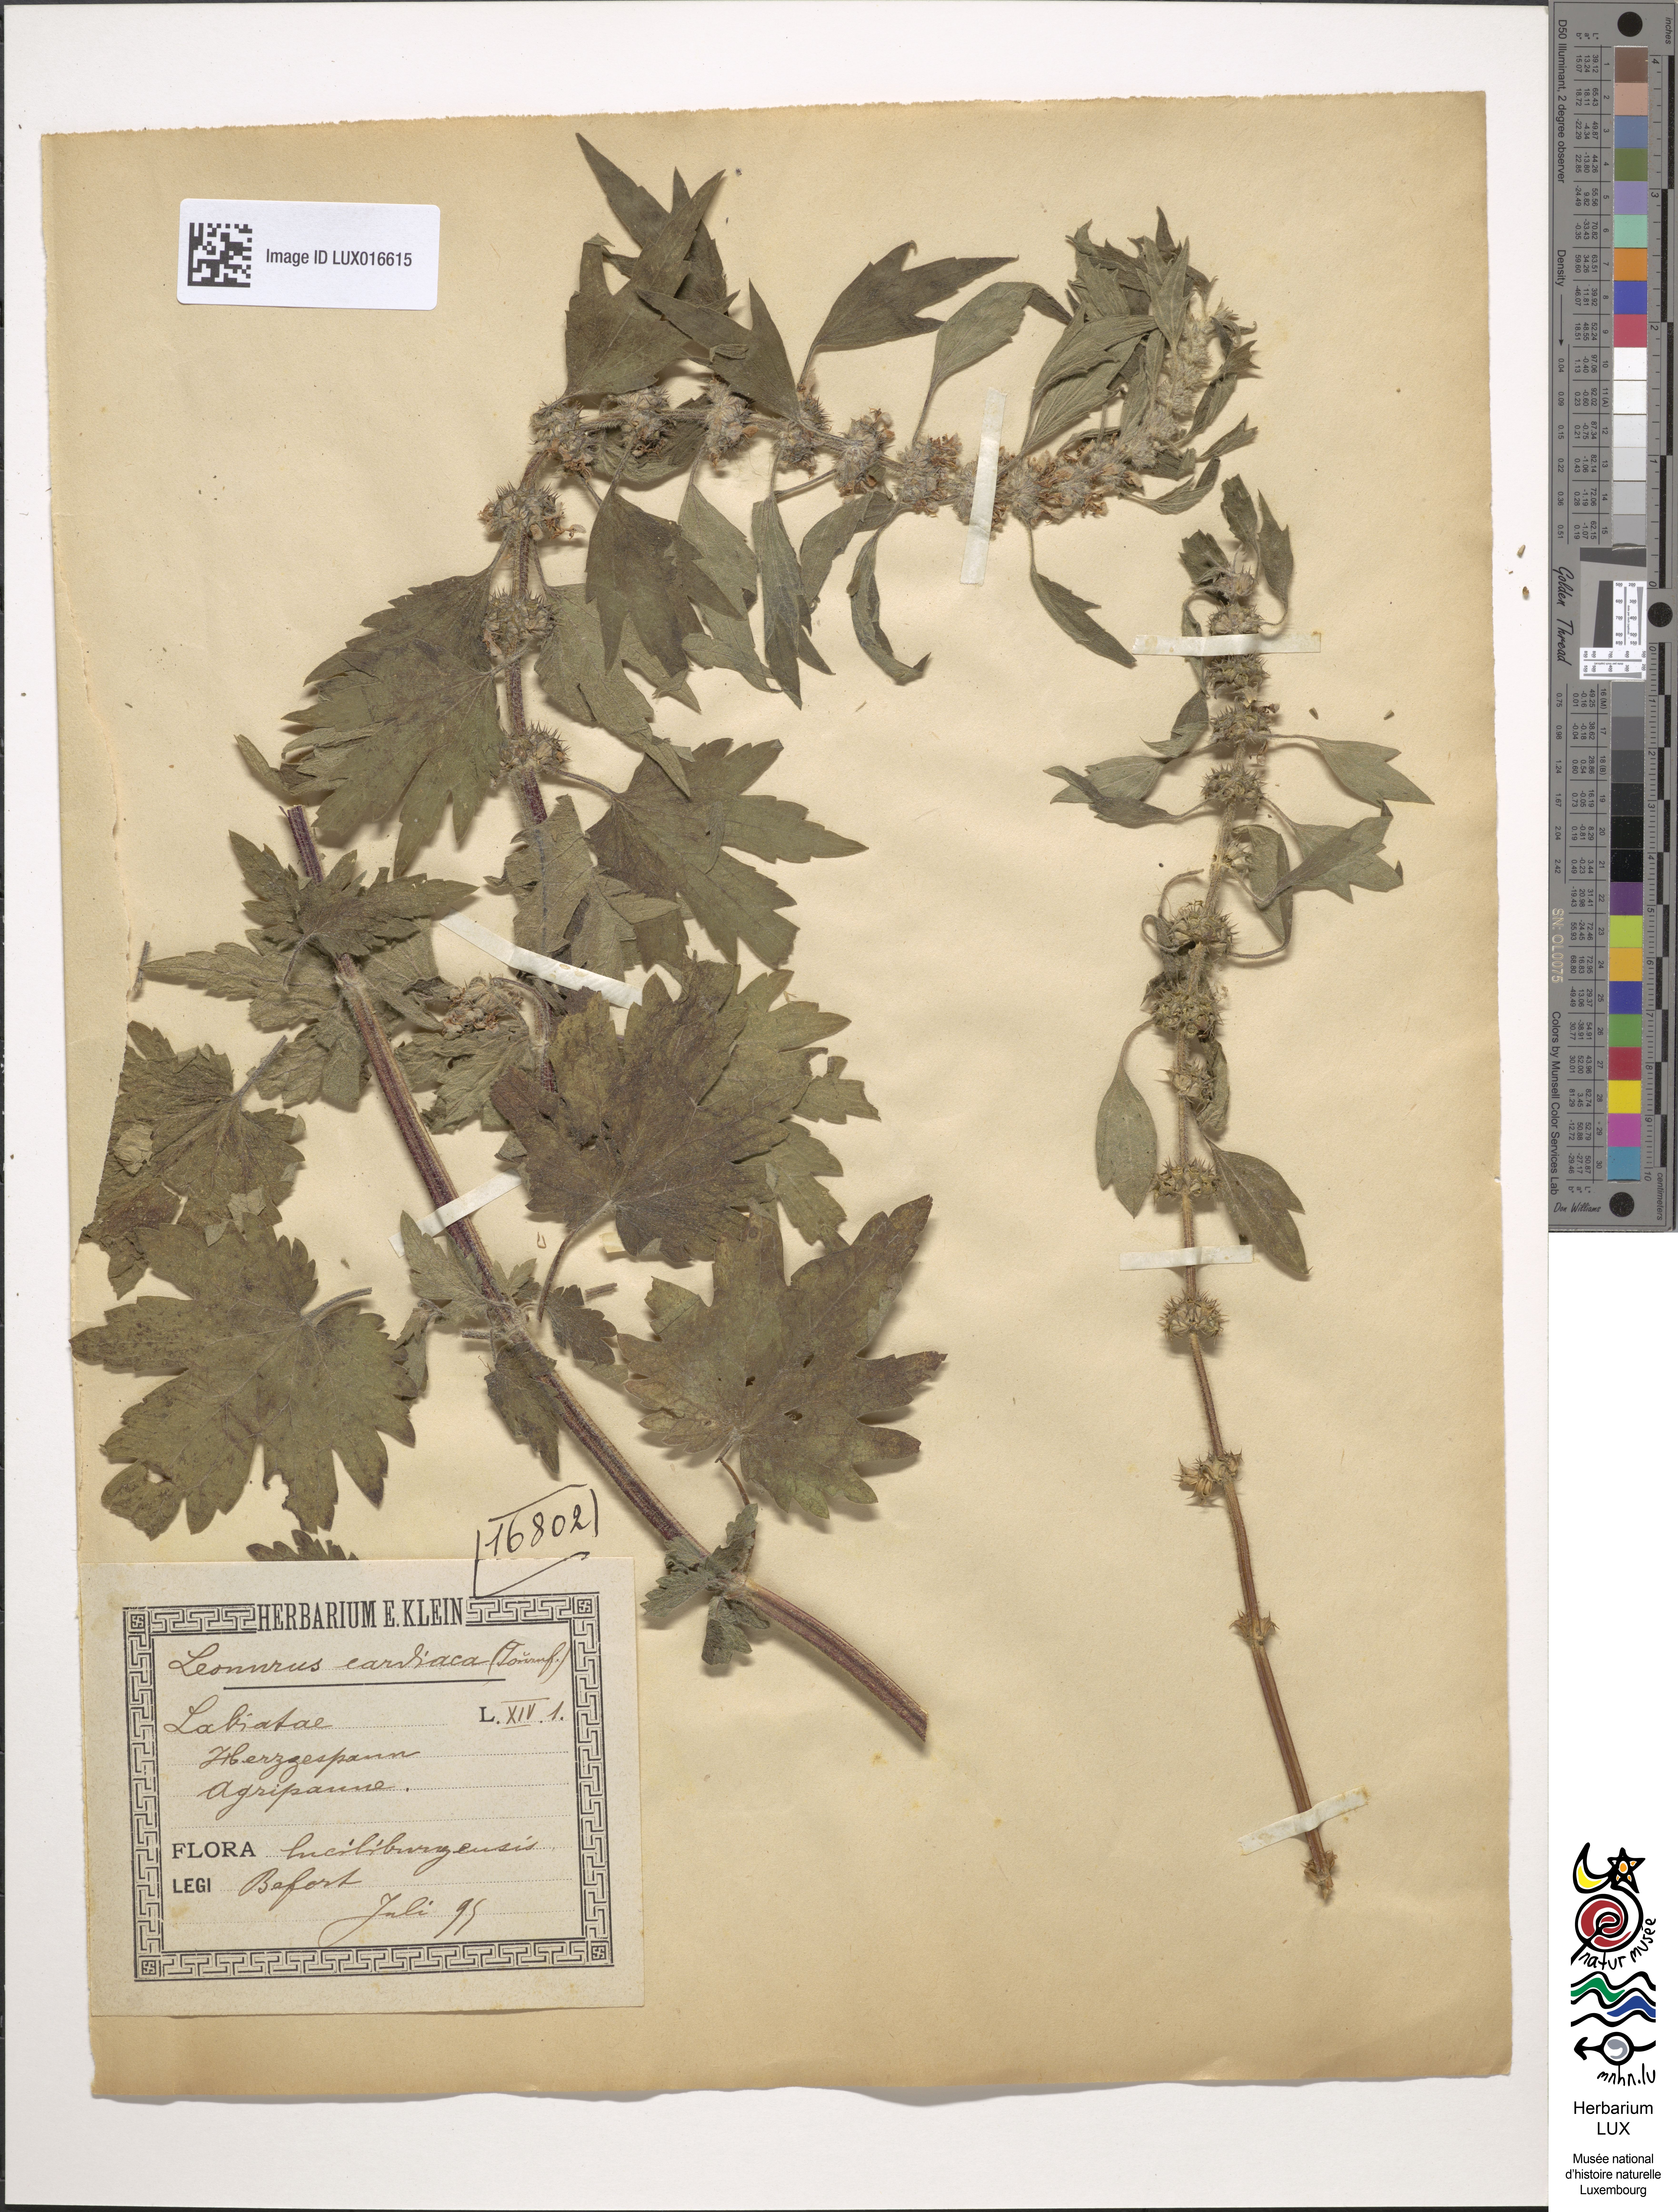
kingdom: Plantae
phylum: Tracheophyta
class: Magnoliopsida
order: Lamiales
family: Lamiaceae
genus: Leonurus
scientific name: Leonurus cardiaca
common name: Motherwort
